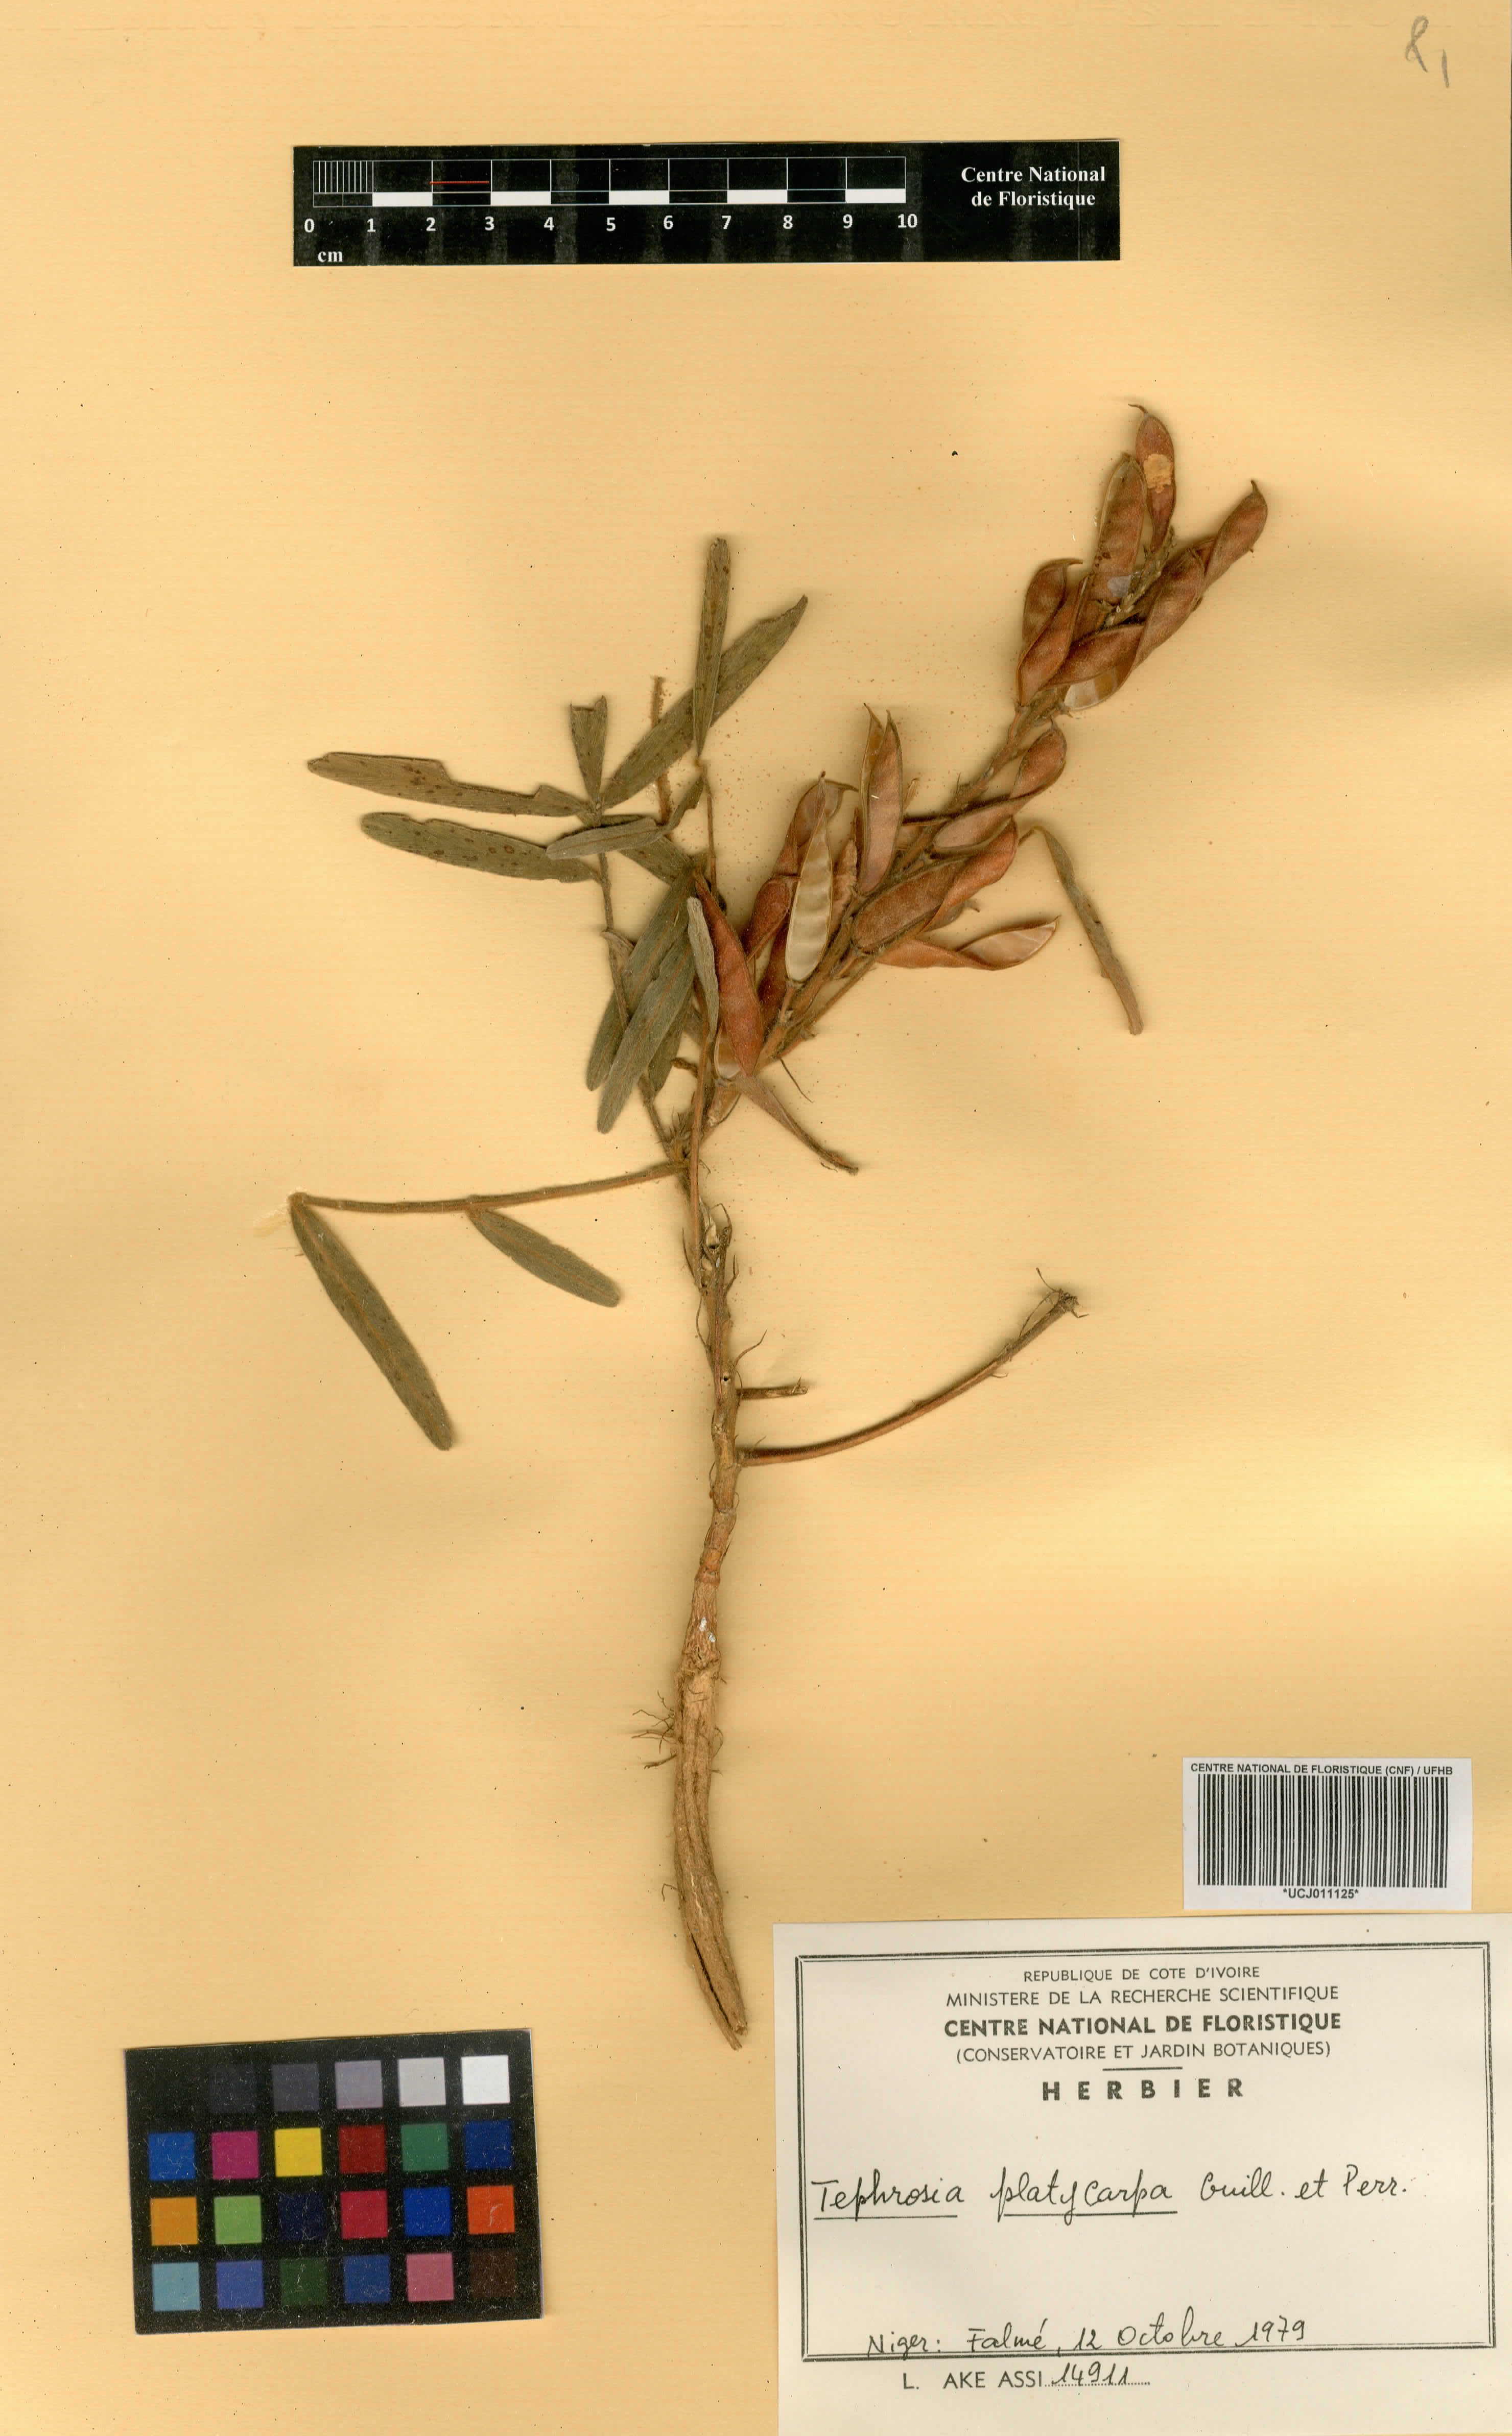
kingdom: Plantae
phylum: Tracheophyta
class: Magnoliopsida
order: Fabales
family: Fabaceae
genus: Tephrosia
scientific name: Tephrosia platycarpa
